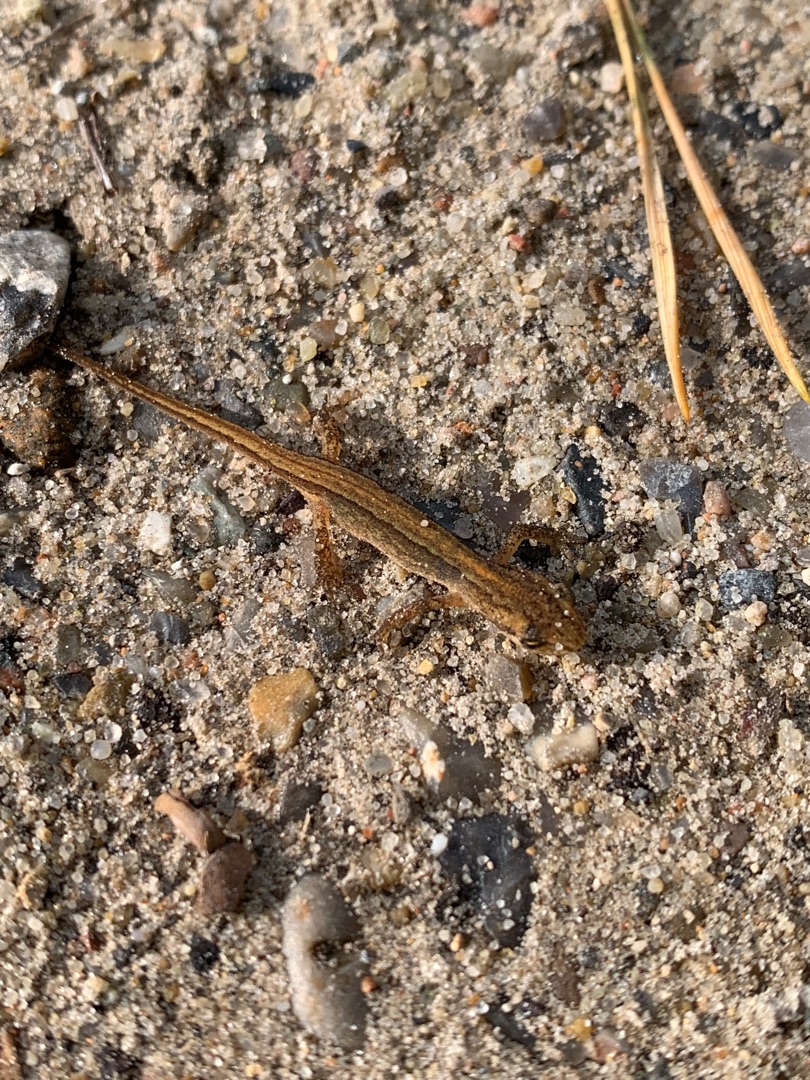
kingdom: Animalia
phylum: Chordata
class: Amphibia
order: Caudata
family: Salamandridae
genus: Lissotriton
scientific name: Lissotriton vulgaris
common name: Lille vandsalamander
